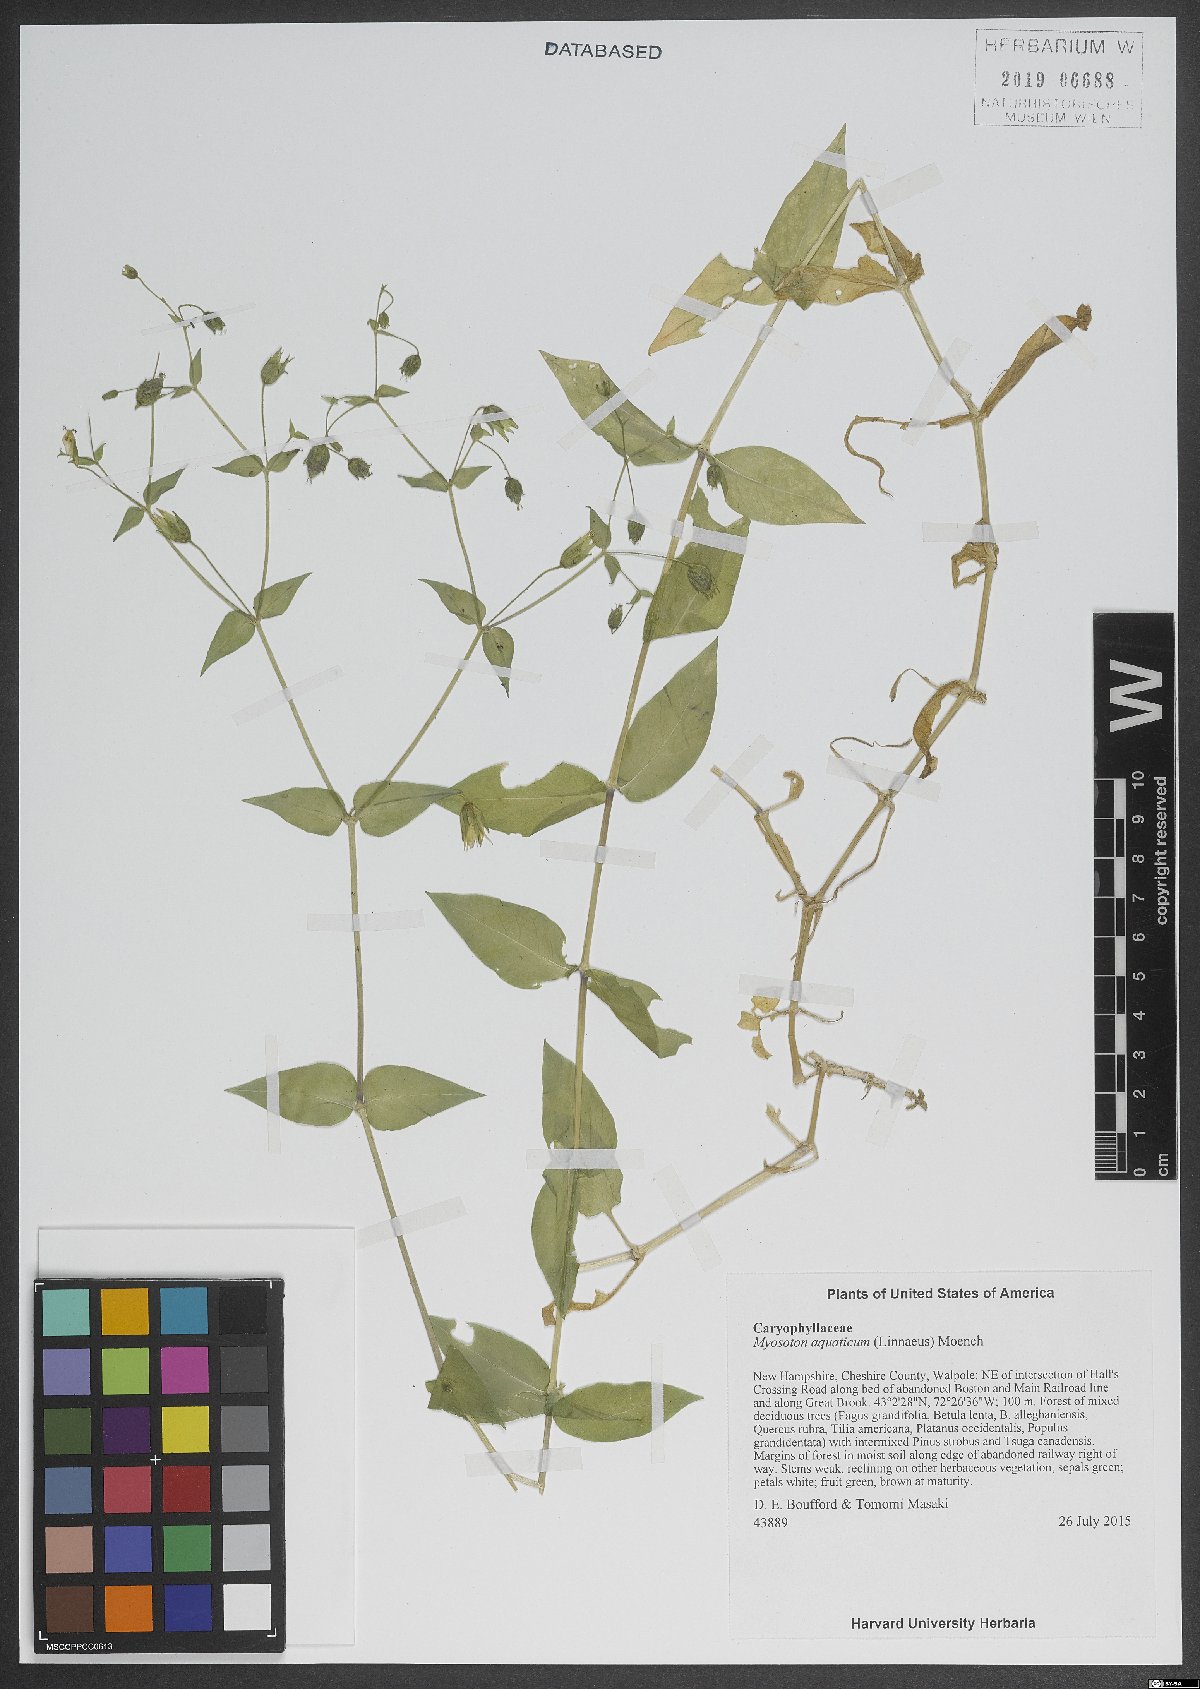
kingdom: Plantae
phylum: Tracheophyta
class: Magnoliopsida
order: Caryophyllales
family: Caryophyllaceae
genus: Stellaria
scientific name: Stellaria aquatica
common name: Water chickweed
